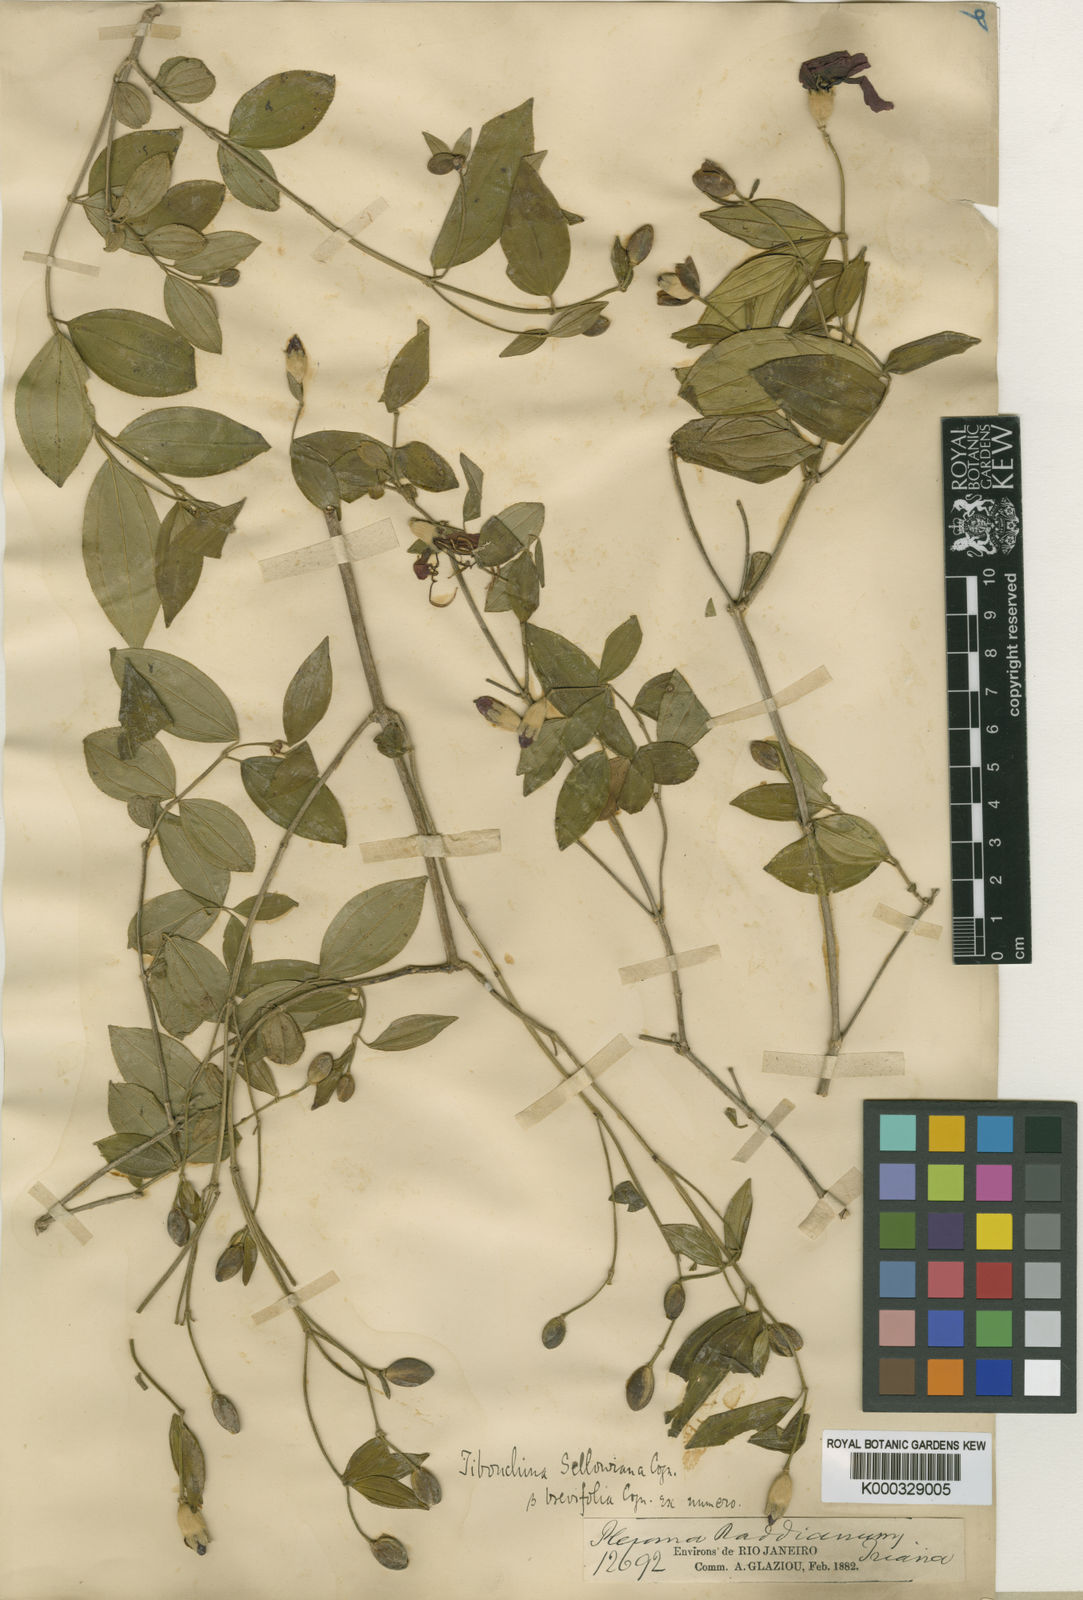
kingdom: Plantae
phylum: Tracheophyta
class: Magnoliopsida
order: Myrtales
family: Melastomataceae
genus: Pleroma
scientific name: Pleroma sellowianum
